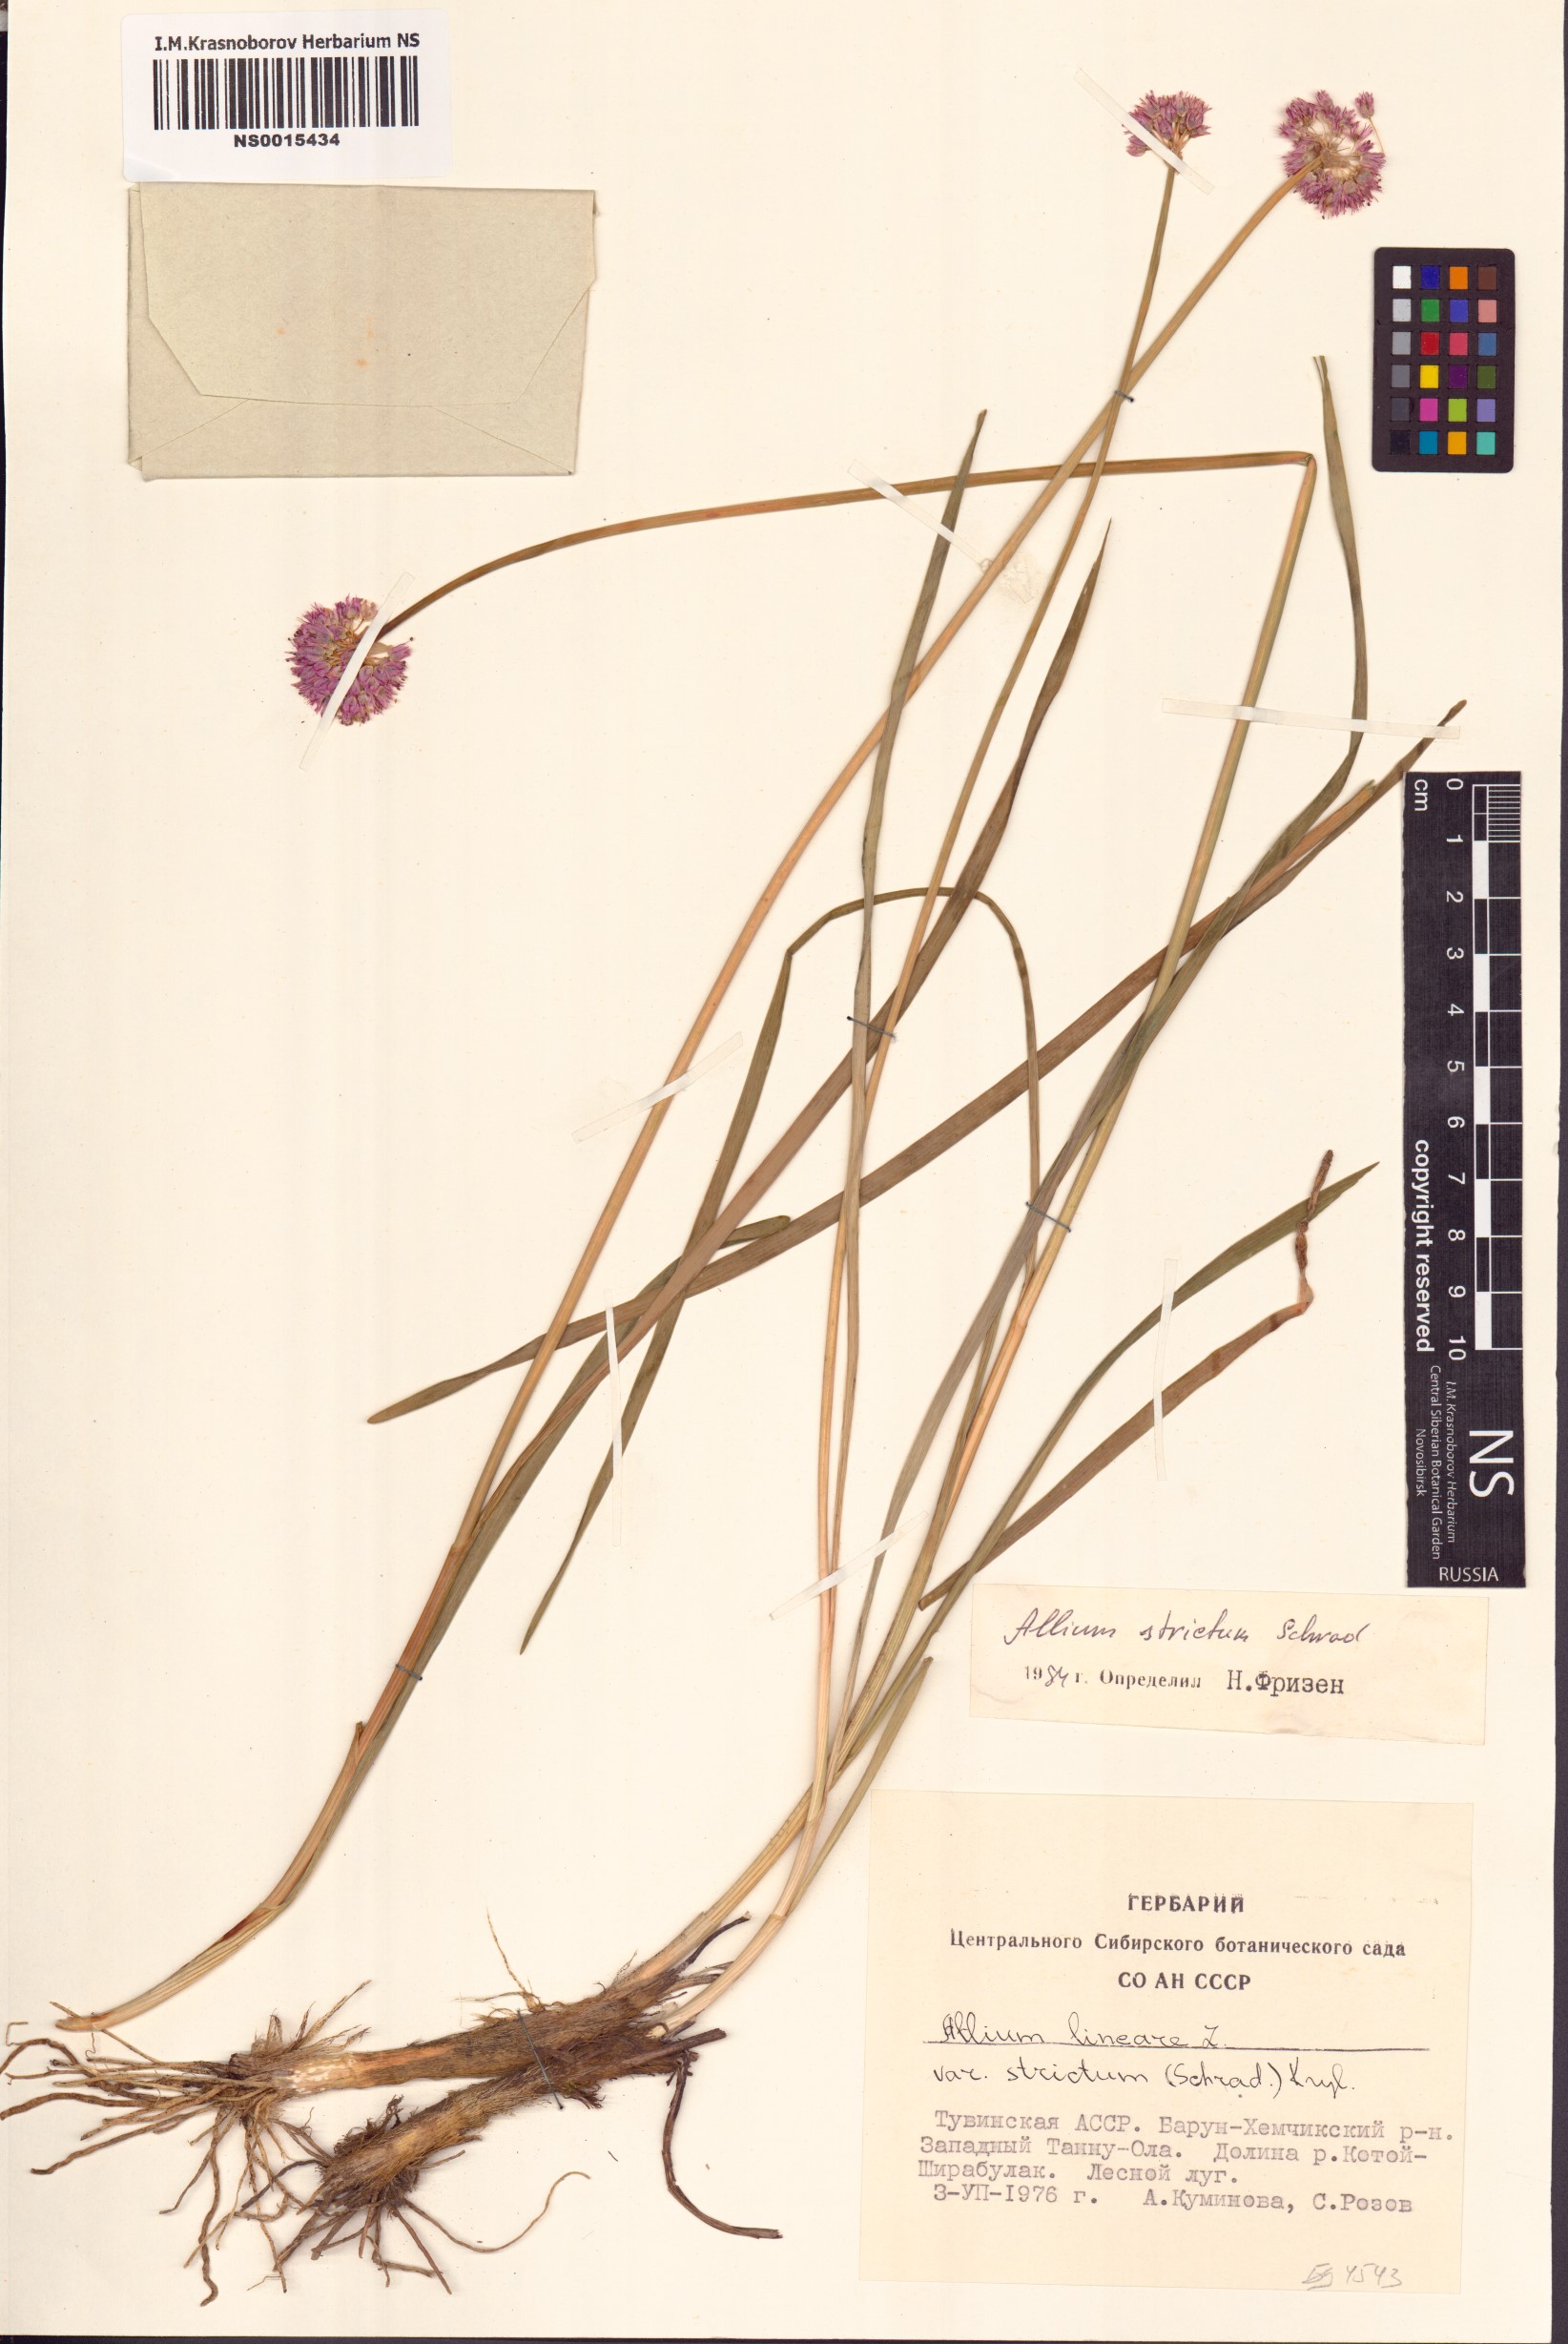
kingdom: Plantae
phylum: Tracheophyta
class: Liliopsida
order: Asparagales
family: Amaryllidaceae
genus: Allium
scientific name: Allium strictum
